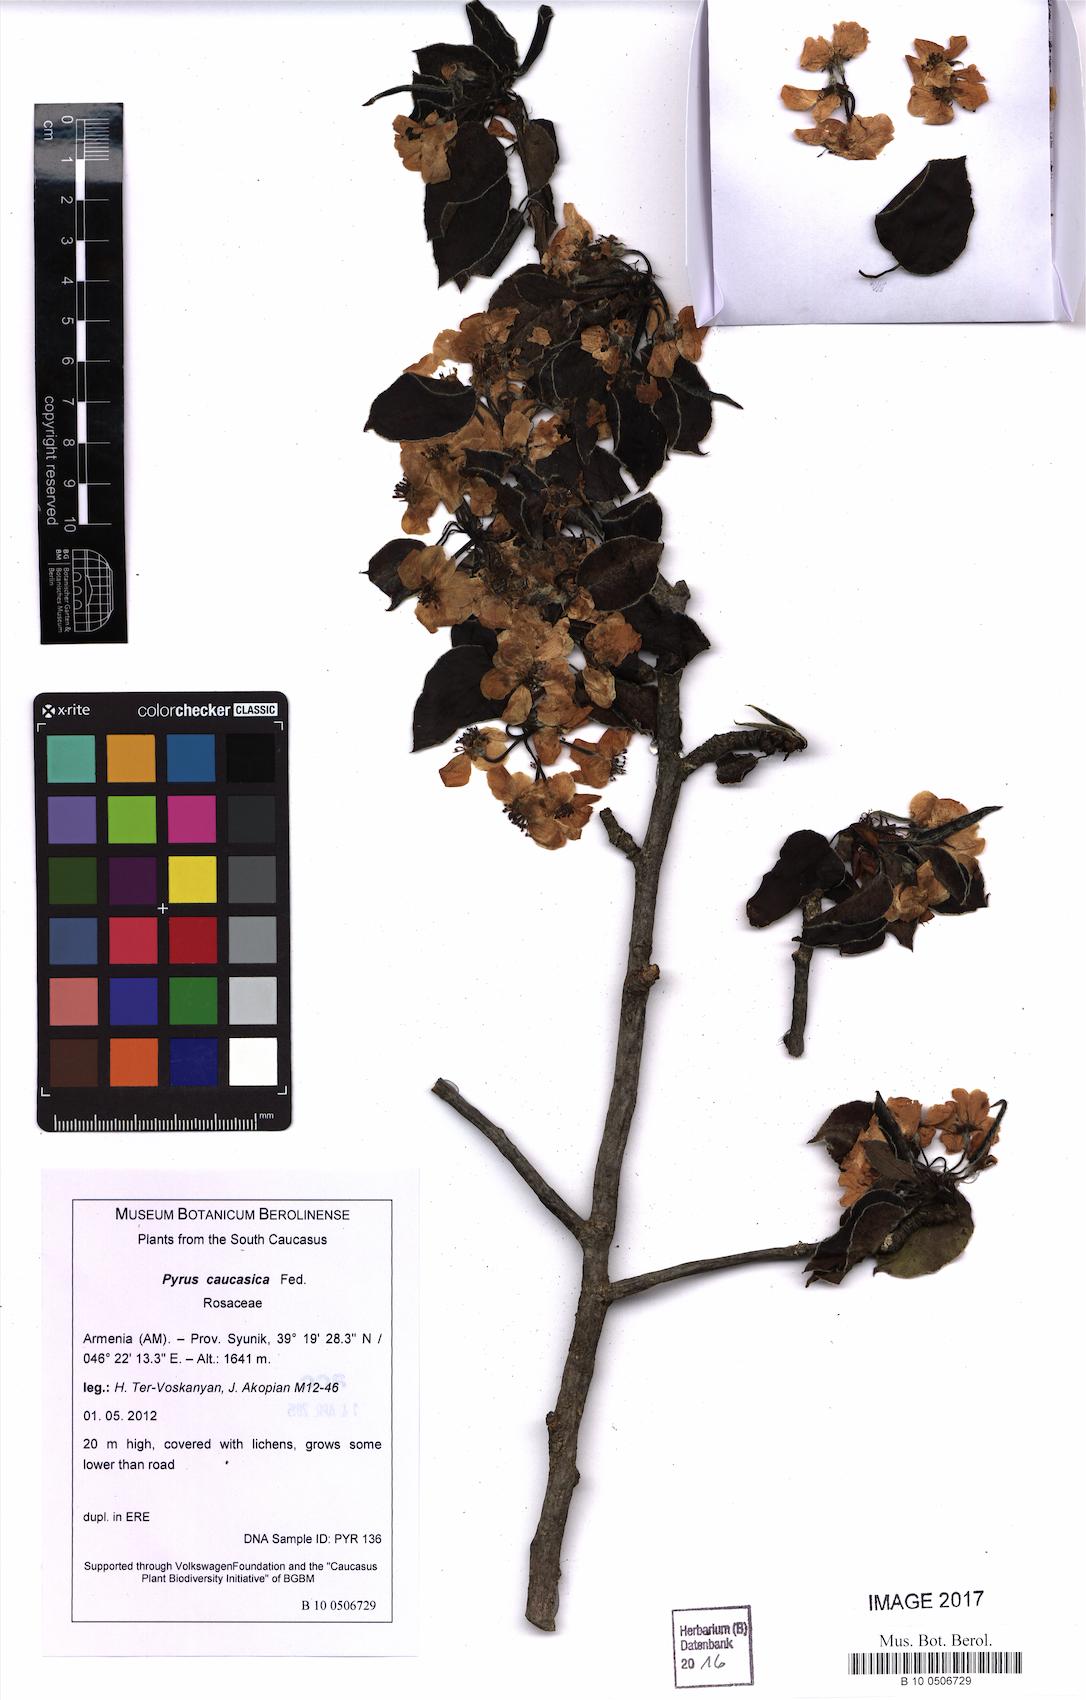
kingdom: Plantae
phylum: Tracheophyta
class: Magnoliopsida
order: Rosales
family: Rosaceae
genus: Pyrus
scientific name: Pyrus communis
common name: Pear
